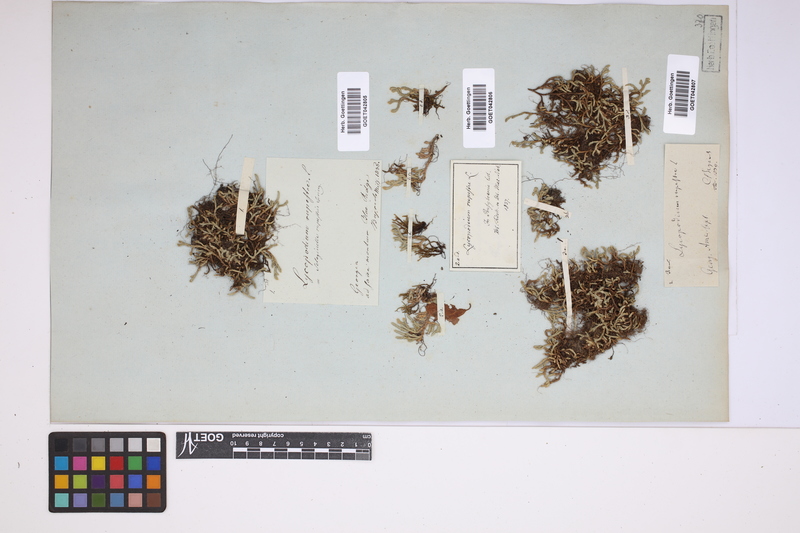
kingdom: Plantae
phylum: Tracheophyta
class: Lycopodiopsida
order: Selaginellales
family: Selaginellaceae
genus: Selaginella
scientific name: Selaginella rupestris
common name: Dwarf spikemoss
